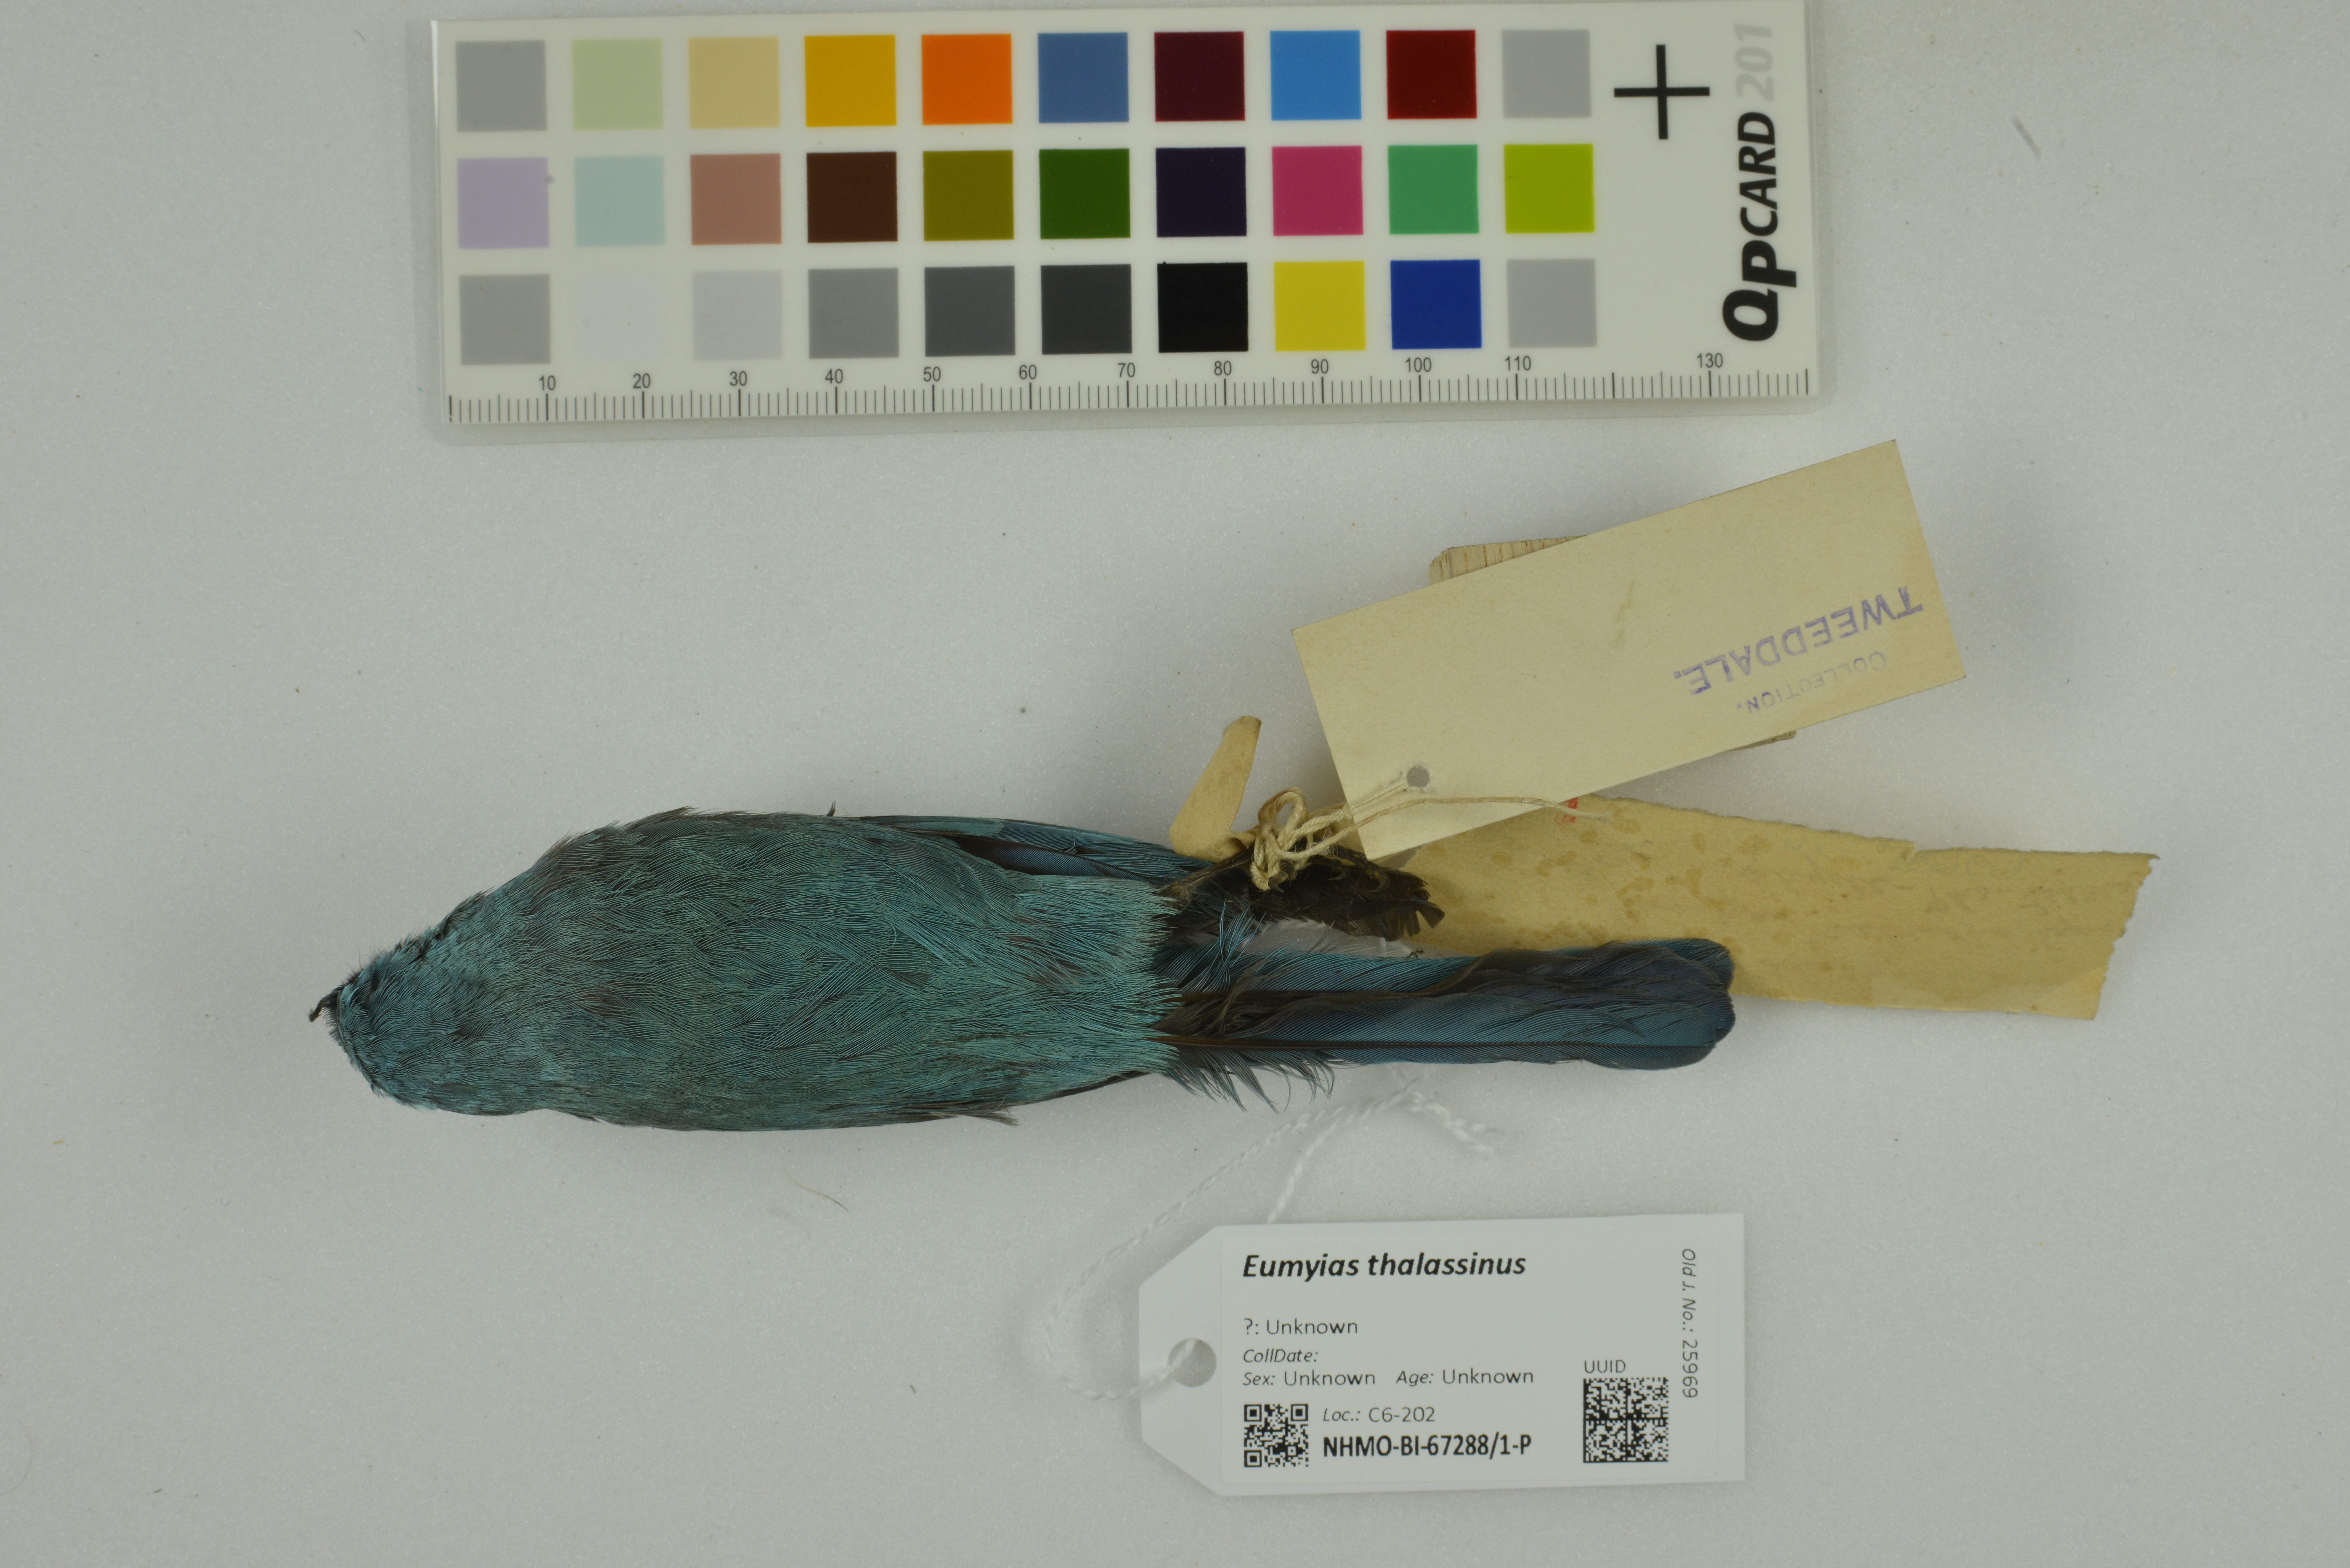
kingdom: Animalia
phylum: Chordata
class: Aves
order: Passeriformes
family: Muscicapidae
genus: Eumyias
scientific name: Eumyias thalassinus
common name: Verditer flycatcher
